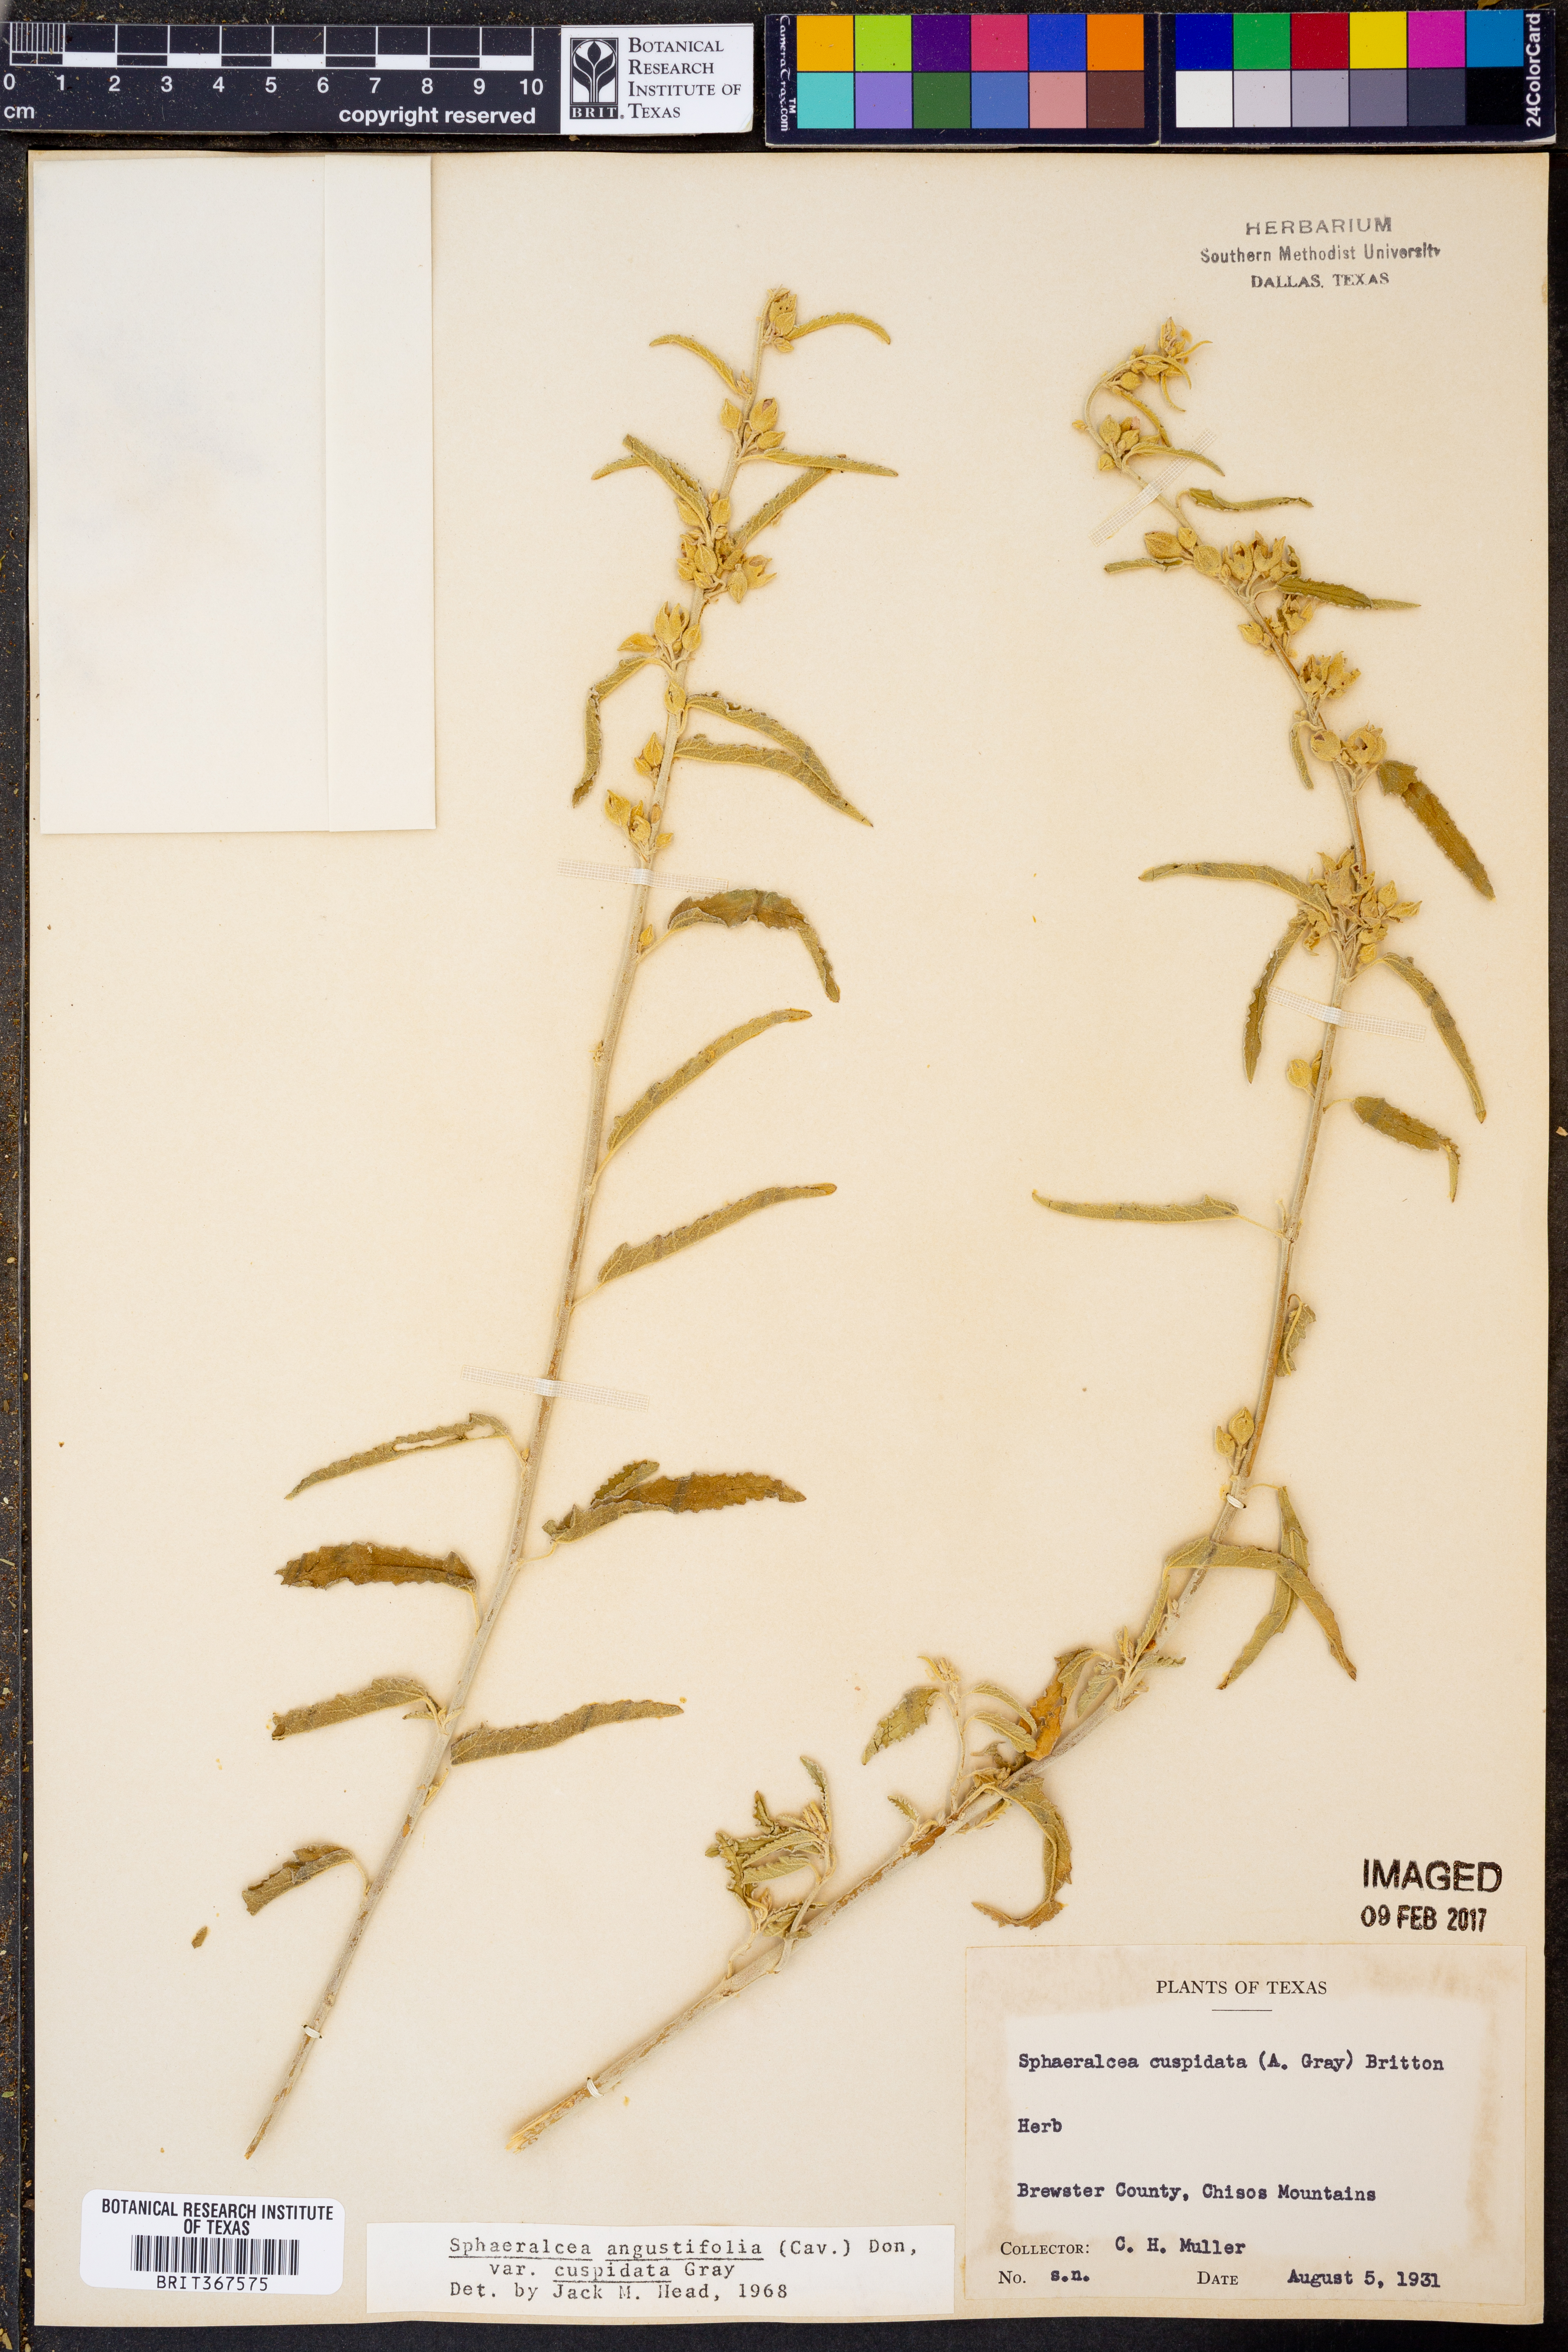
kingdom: Plantae
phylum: Tracheophyta
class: Magnoliopsida
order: Malvales
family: Malvaceae
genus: Sphaeralcea
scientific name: Sphaeralcea angustifolia
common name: Copper globe-mallow
